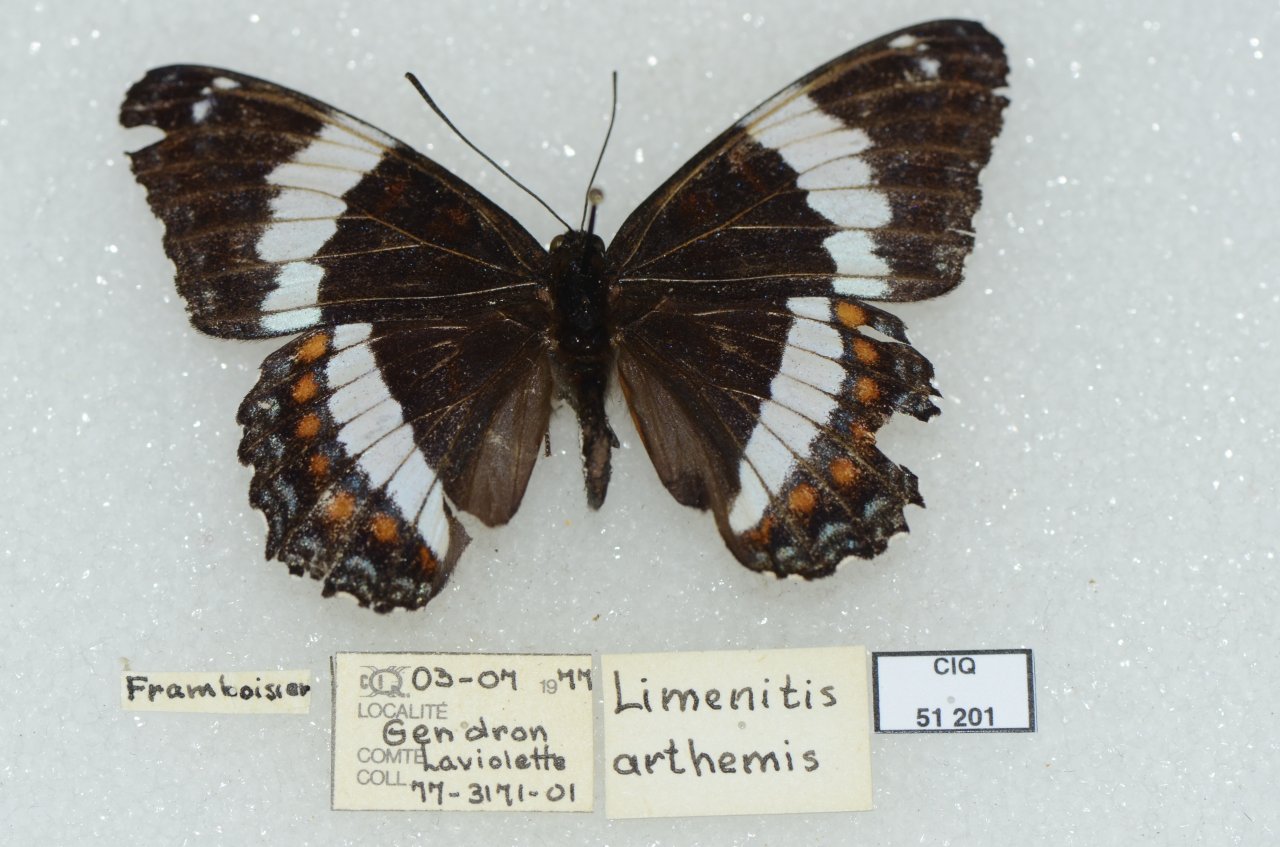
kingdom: Animalia
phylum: Arthropoda
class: Insecta
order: Lepidoptera
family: Nymphalidae
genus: Limenitis
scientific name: Limenitis arthemis
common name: Red-spotted Admiral
